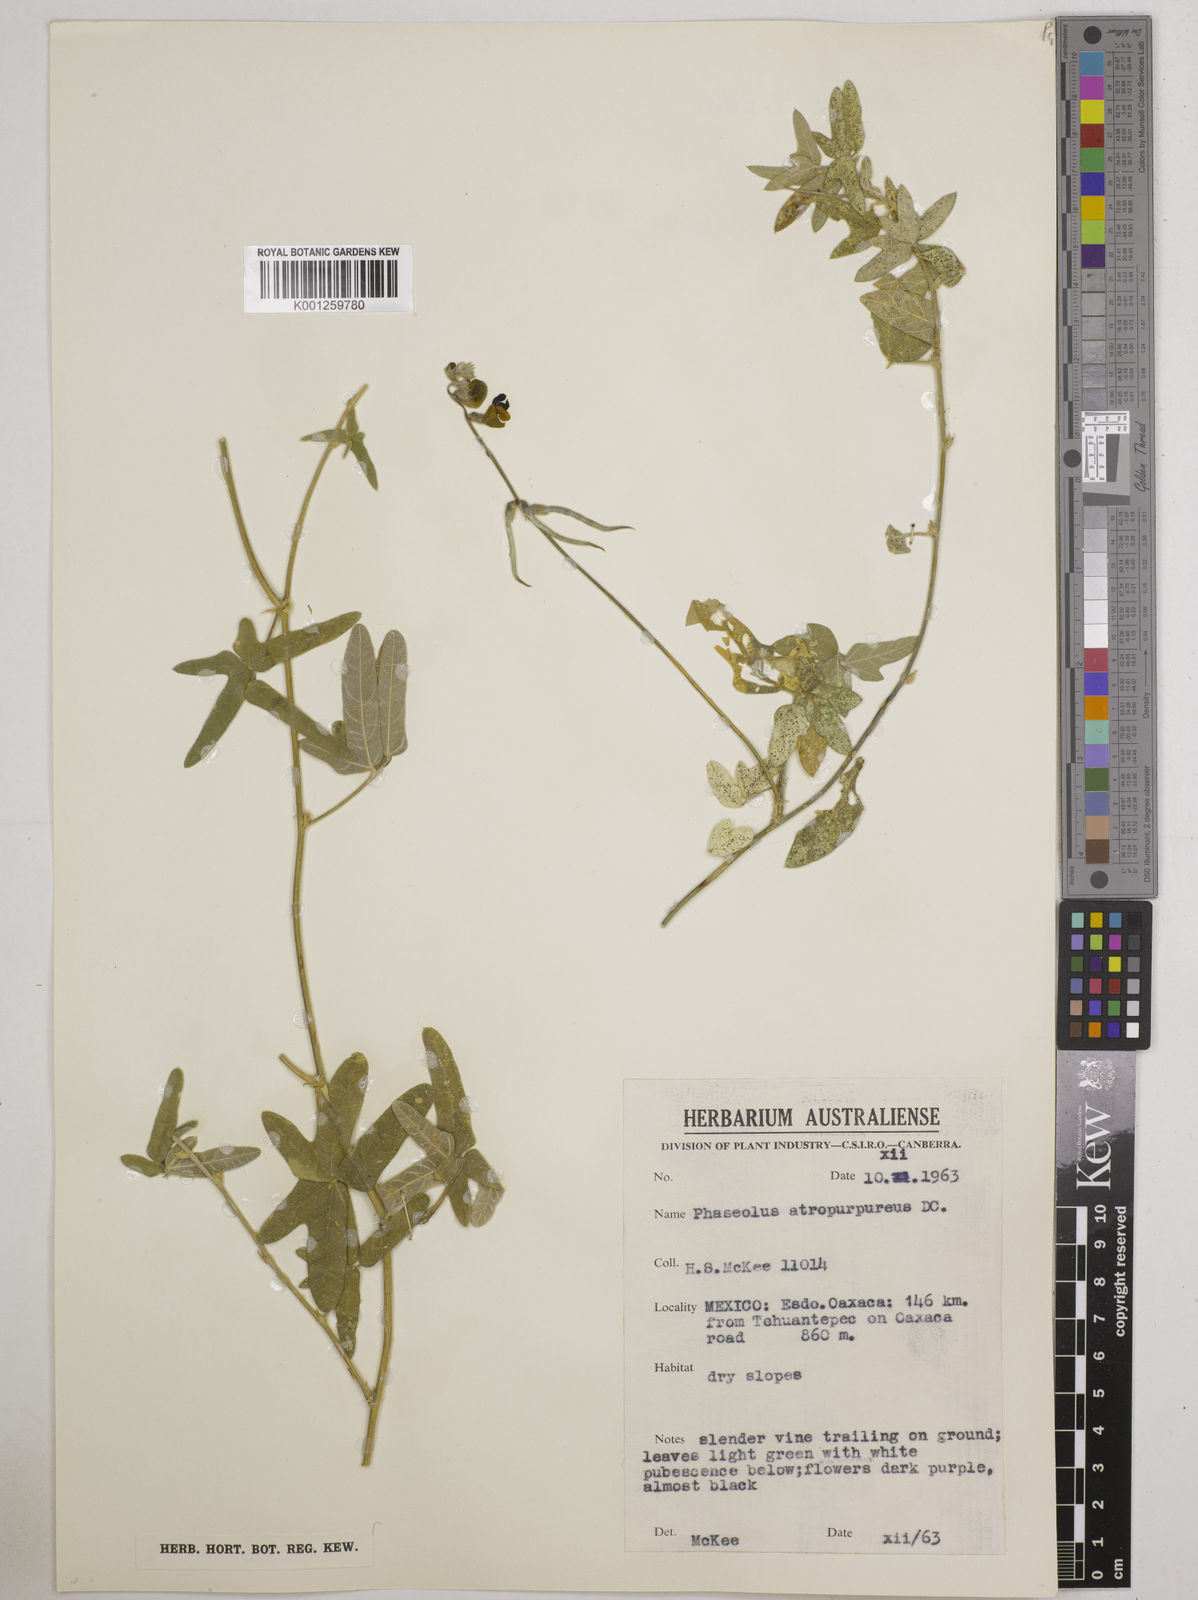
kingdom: Plantae
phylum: Tracheophyta
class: Magnoliopsida
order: Fabales
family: Fabaceae
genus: Macroptilium
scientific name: Macroptilium atropurpureum
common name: Purple bushbean
